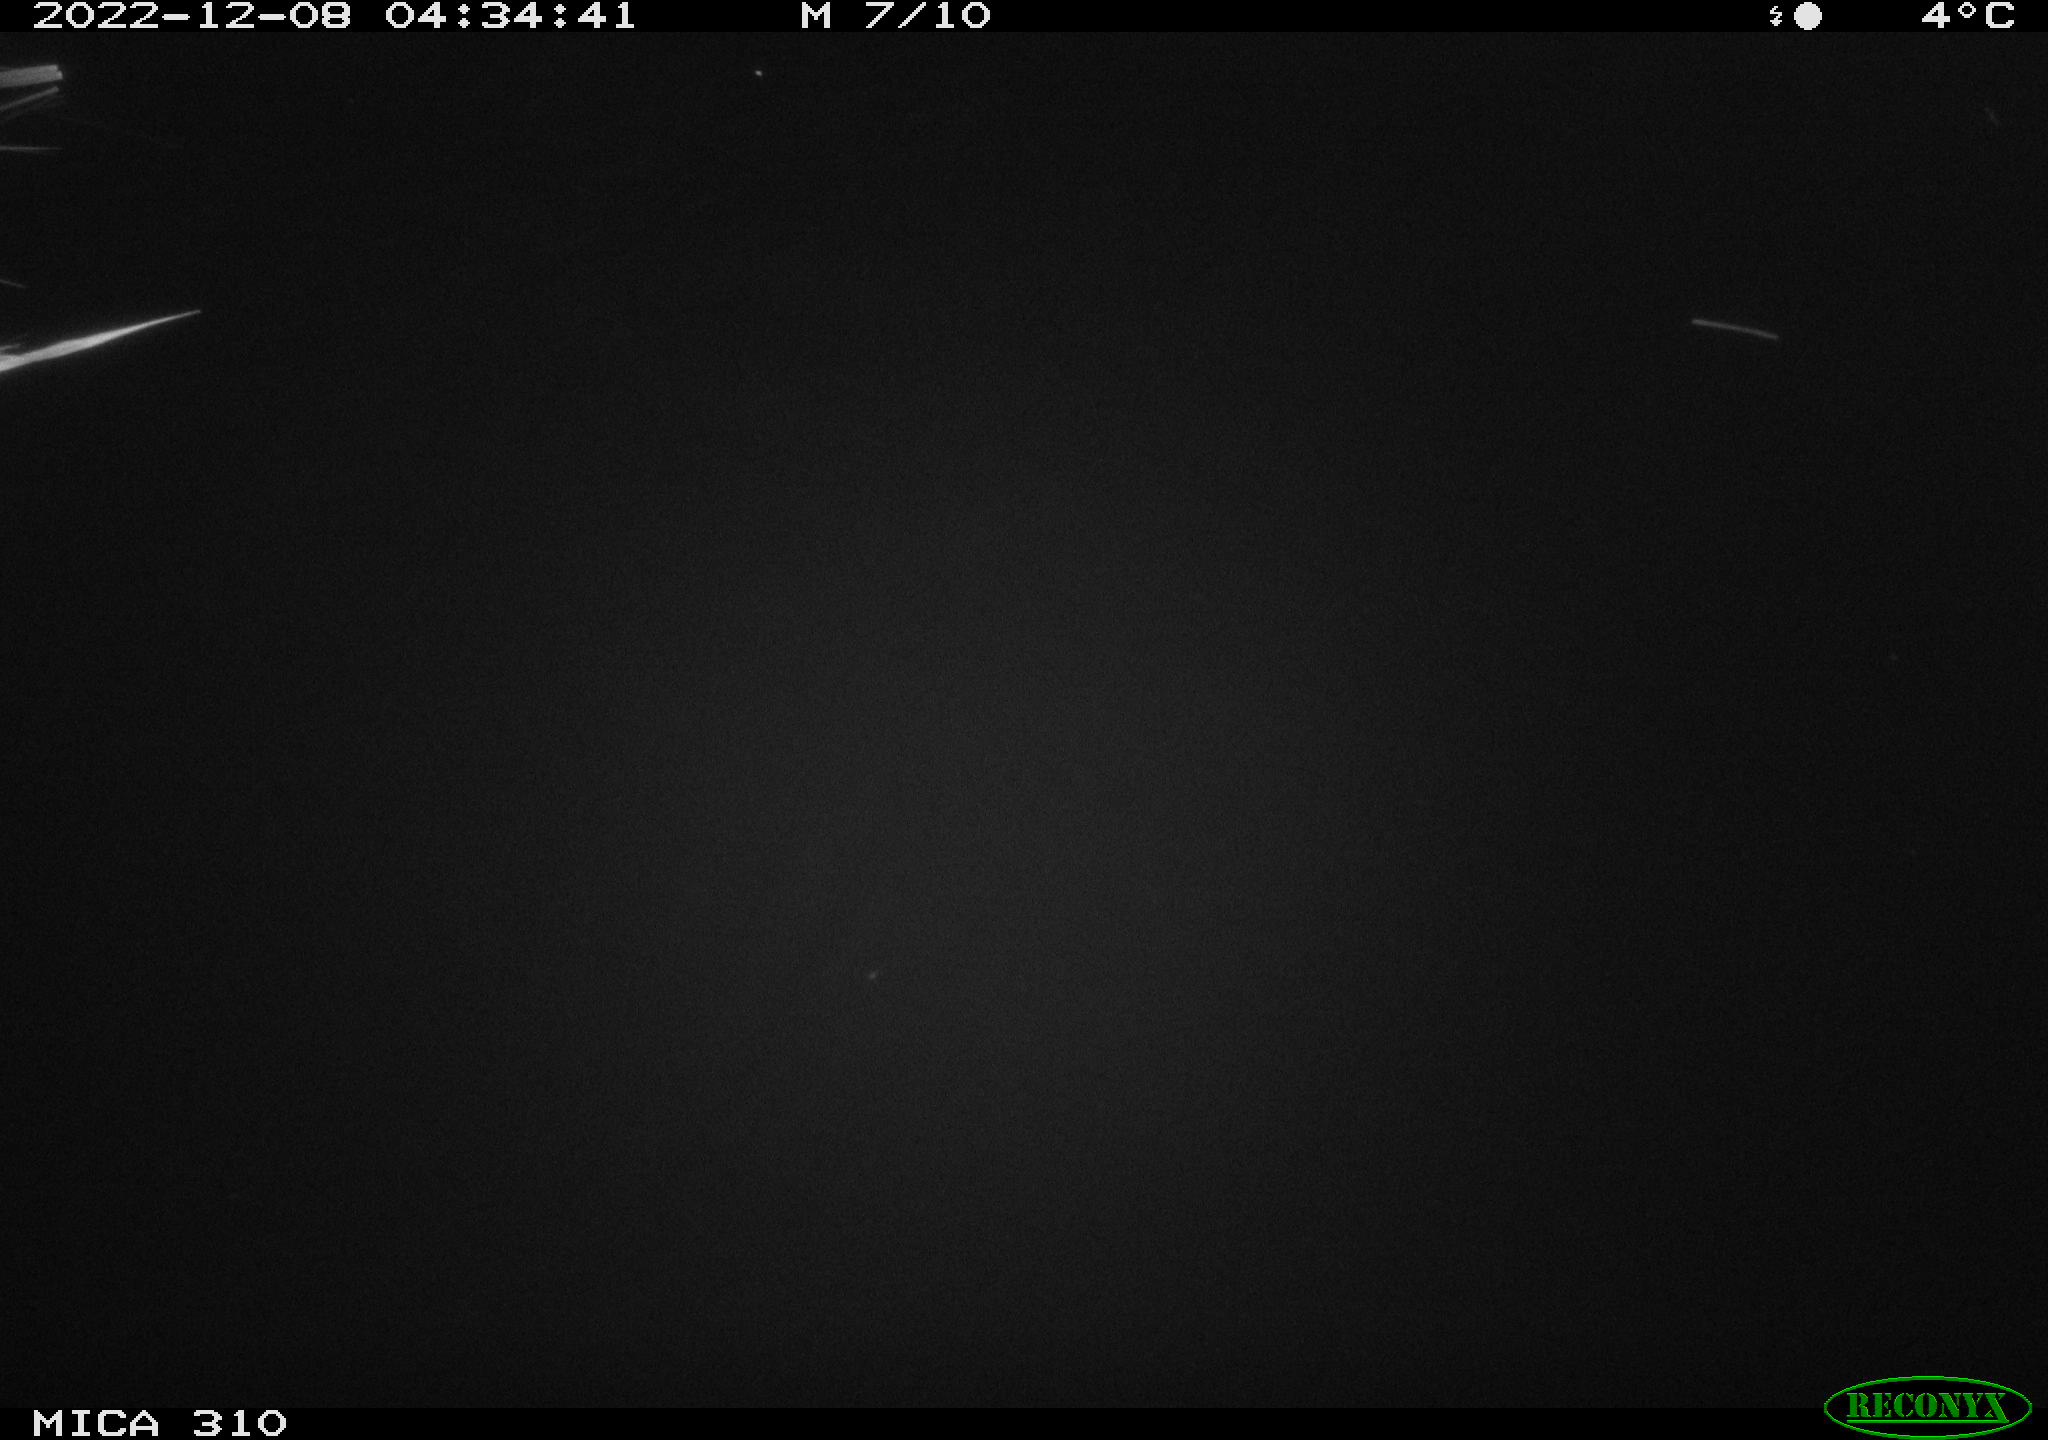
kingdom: Animalia
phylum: Chordata
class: Mammalia
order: Rodentia
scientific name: Rodentia
